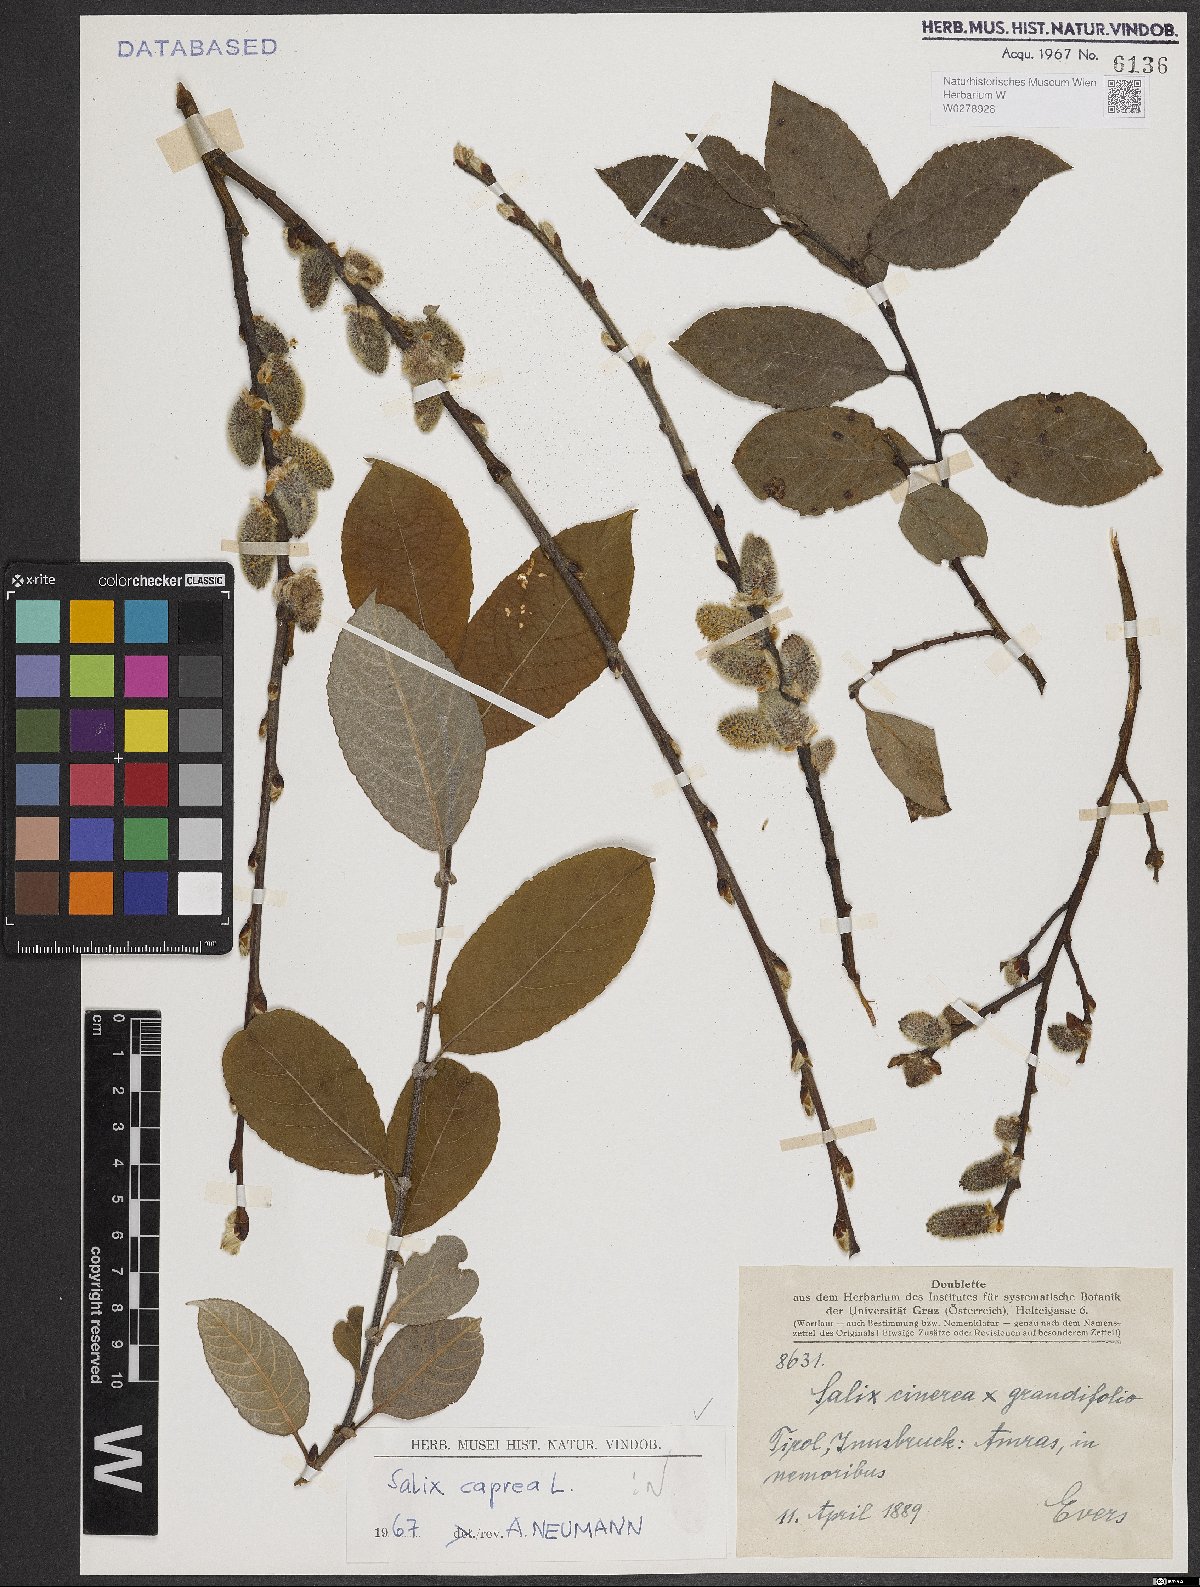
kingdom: Plantae
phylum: Tracheophyta
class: Magnoliopsida
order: Malpighiales
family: Salicaceae
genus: Salix
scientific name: Salix caprea
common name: Goat willow
